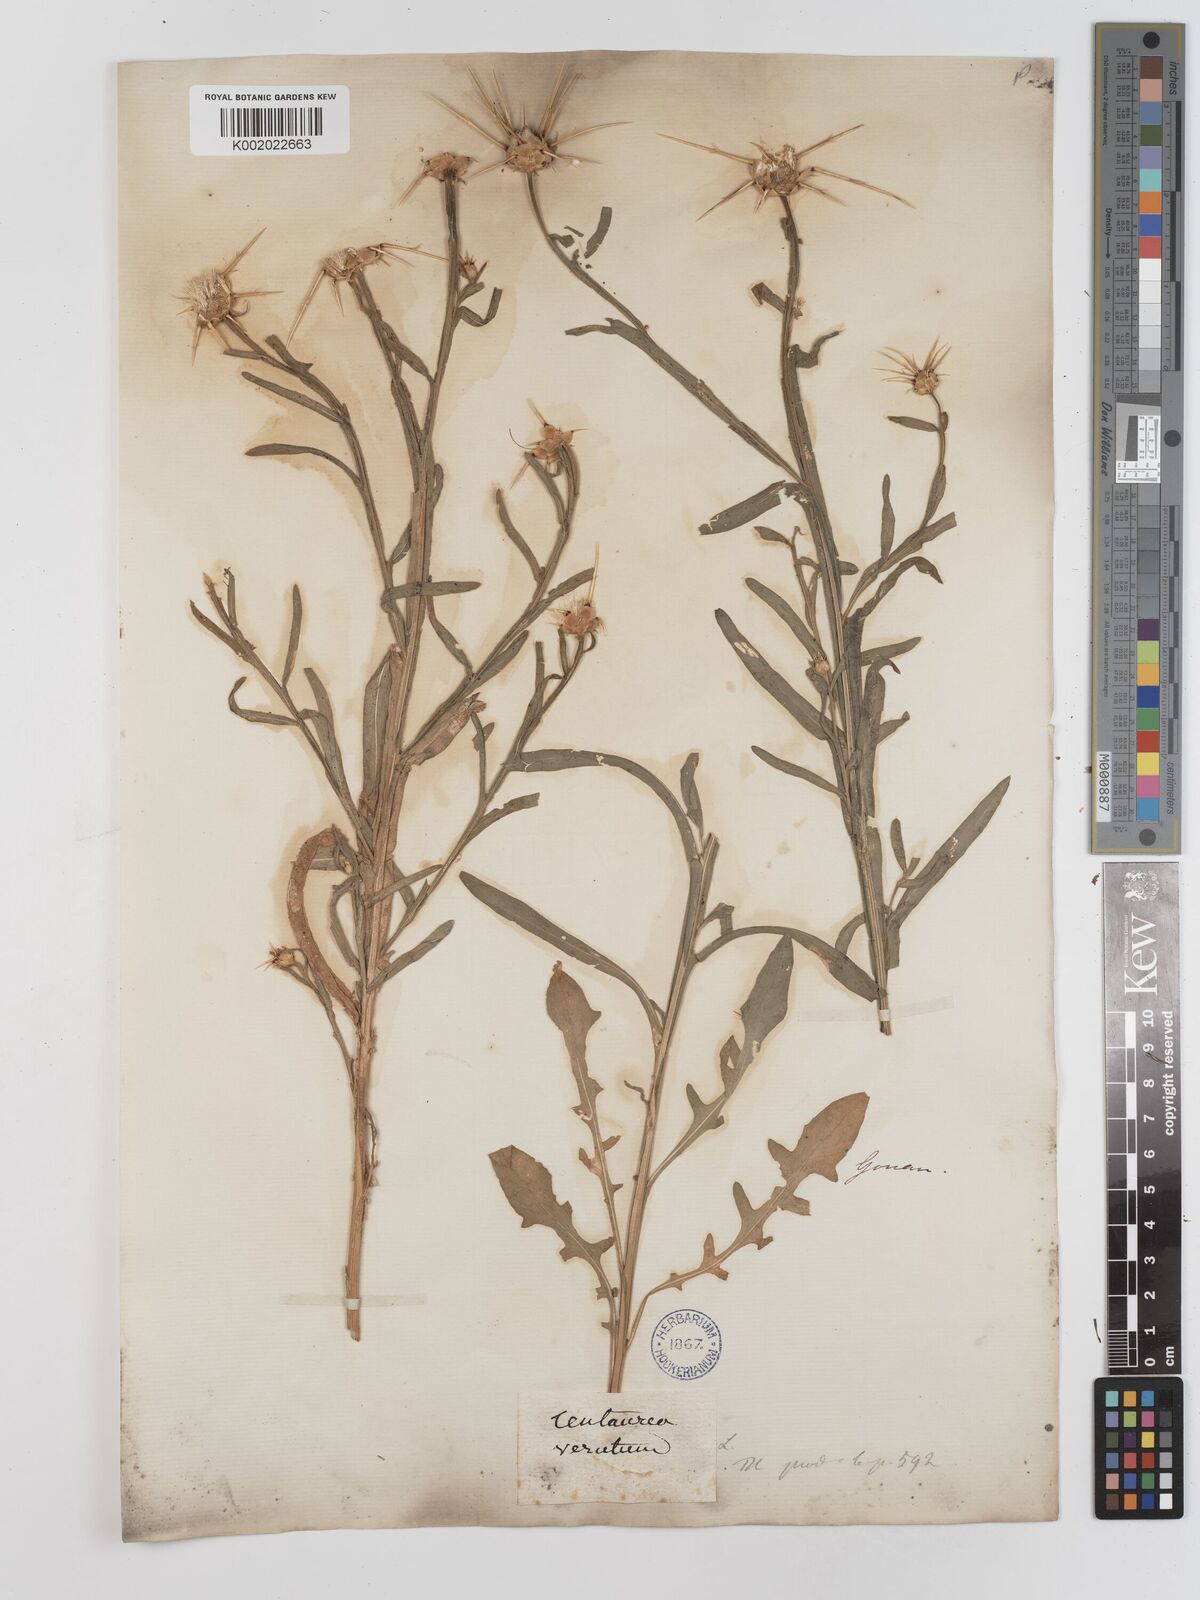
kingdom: Plantae
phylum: Tracheophyta
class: Magnoliopsida
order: Asterales
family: Asteraceae
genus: Centaurea
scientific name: Centaurea verutum
